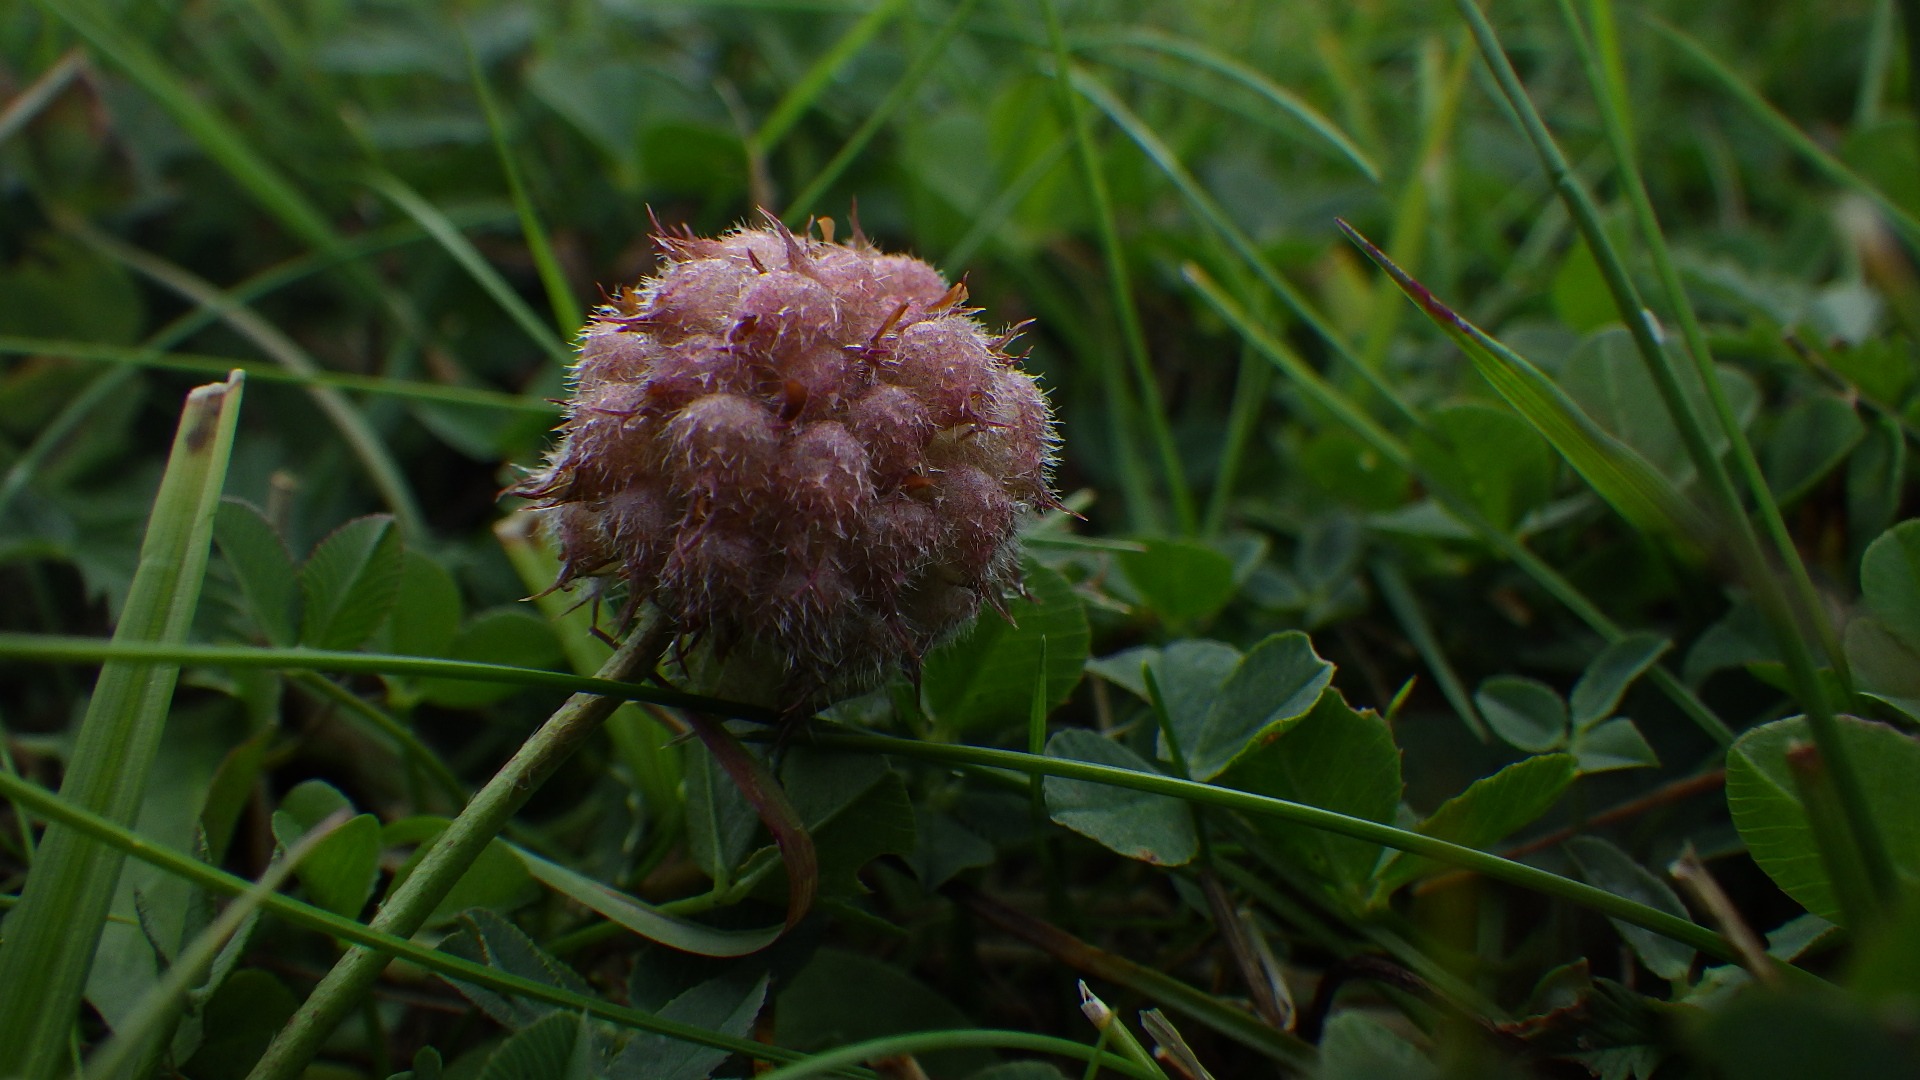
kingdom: Plantae
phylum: Tracheophyta
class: Magnoliopsida
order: Fabales
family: Fabaceae
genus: Trifolium
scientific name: Trifolium fragiferum
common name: Jordbær-kløver
